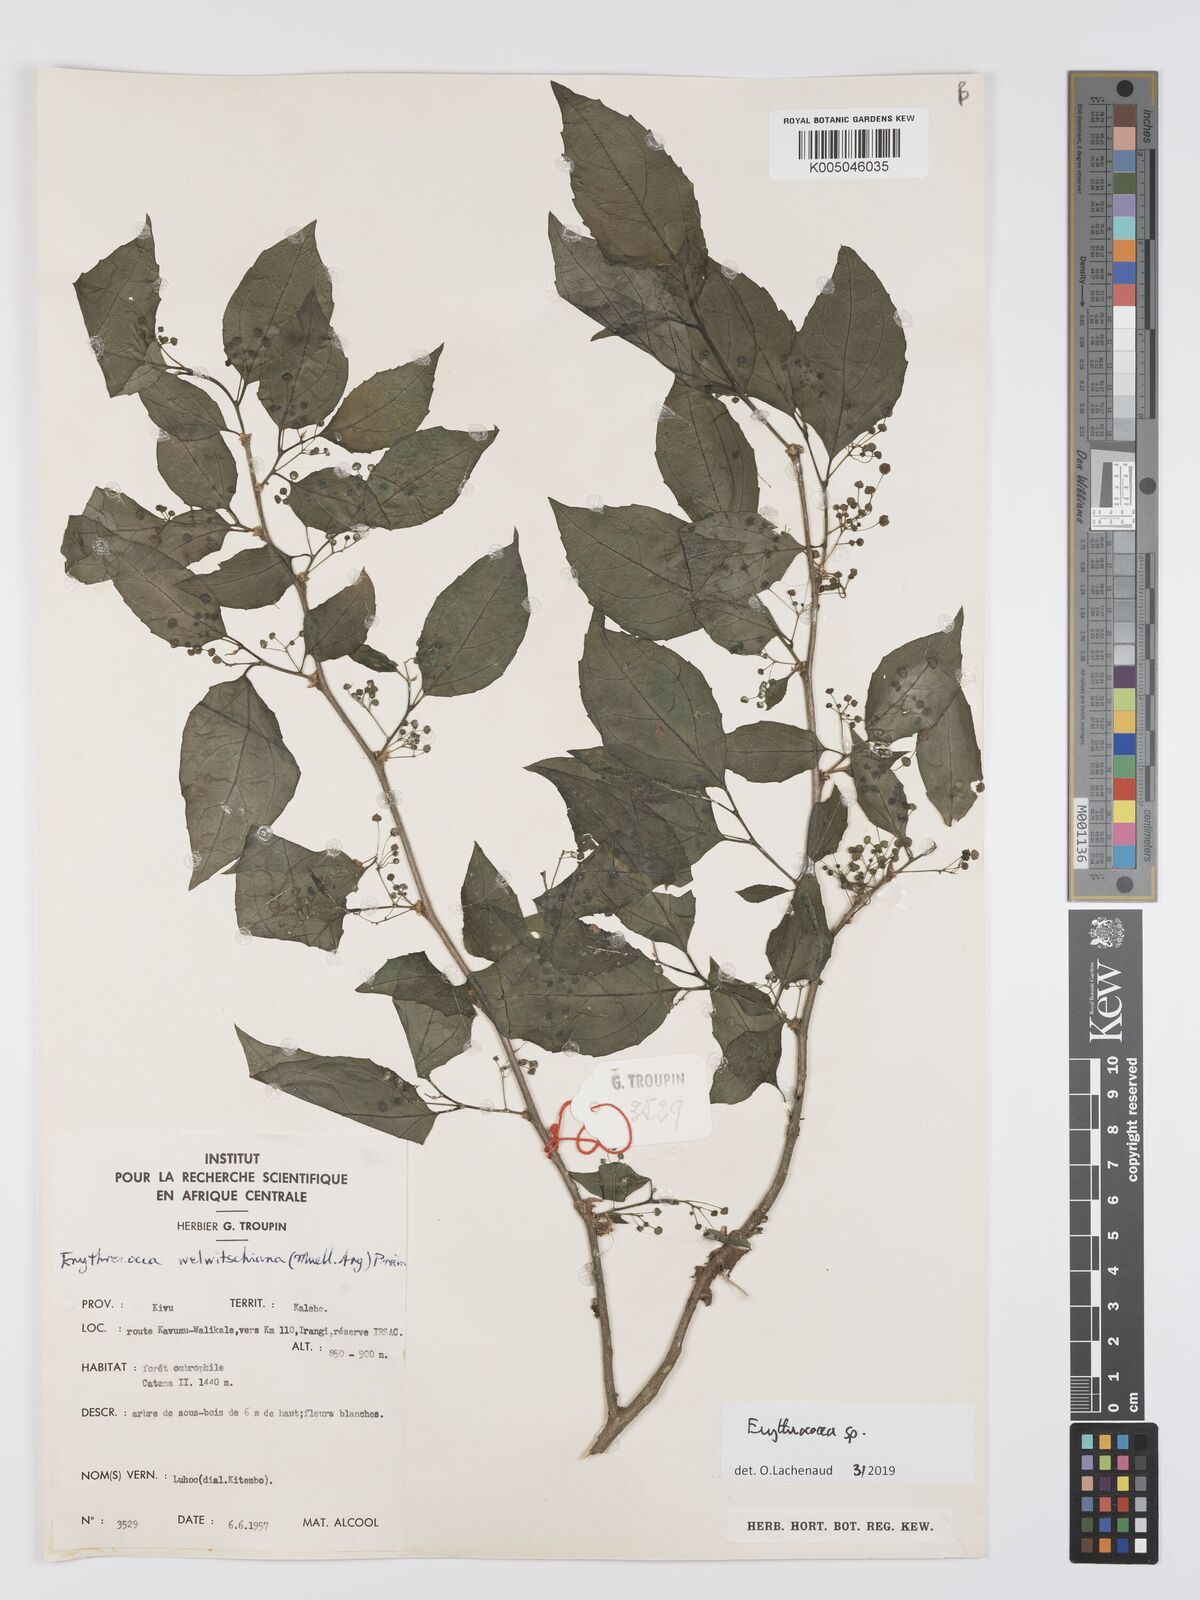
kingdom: Plantae
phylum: Tracheophyta
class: Magnoliopsida
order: Malpighiales
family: Euphorbiaceae
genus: Erythrococca
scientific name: Erythrococca
